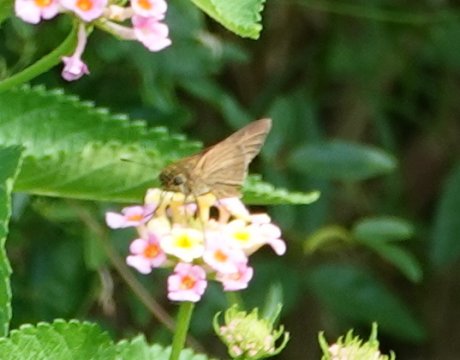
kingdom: Animalia
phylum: Arthropoda
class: Insecta
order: Lepidoptera
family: Hesperiidae
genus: Panoquina
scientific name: Panoquina ocola
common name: Ocola Skipper
